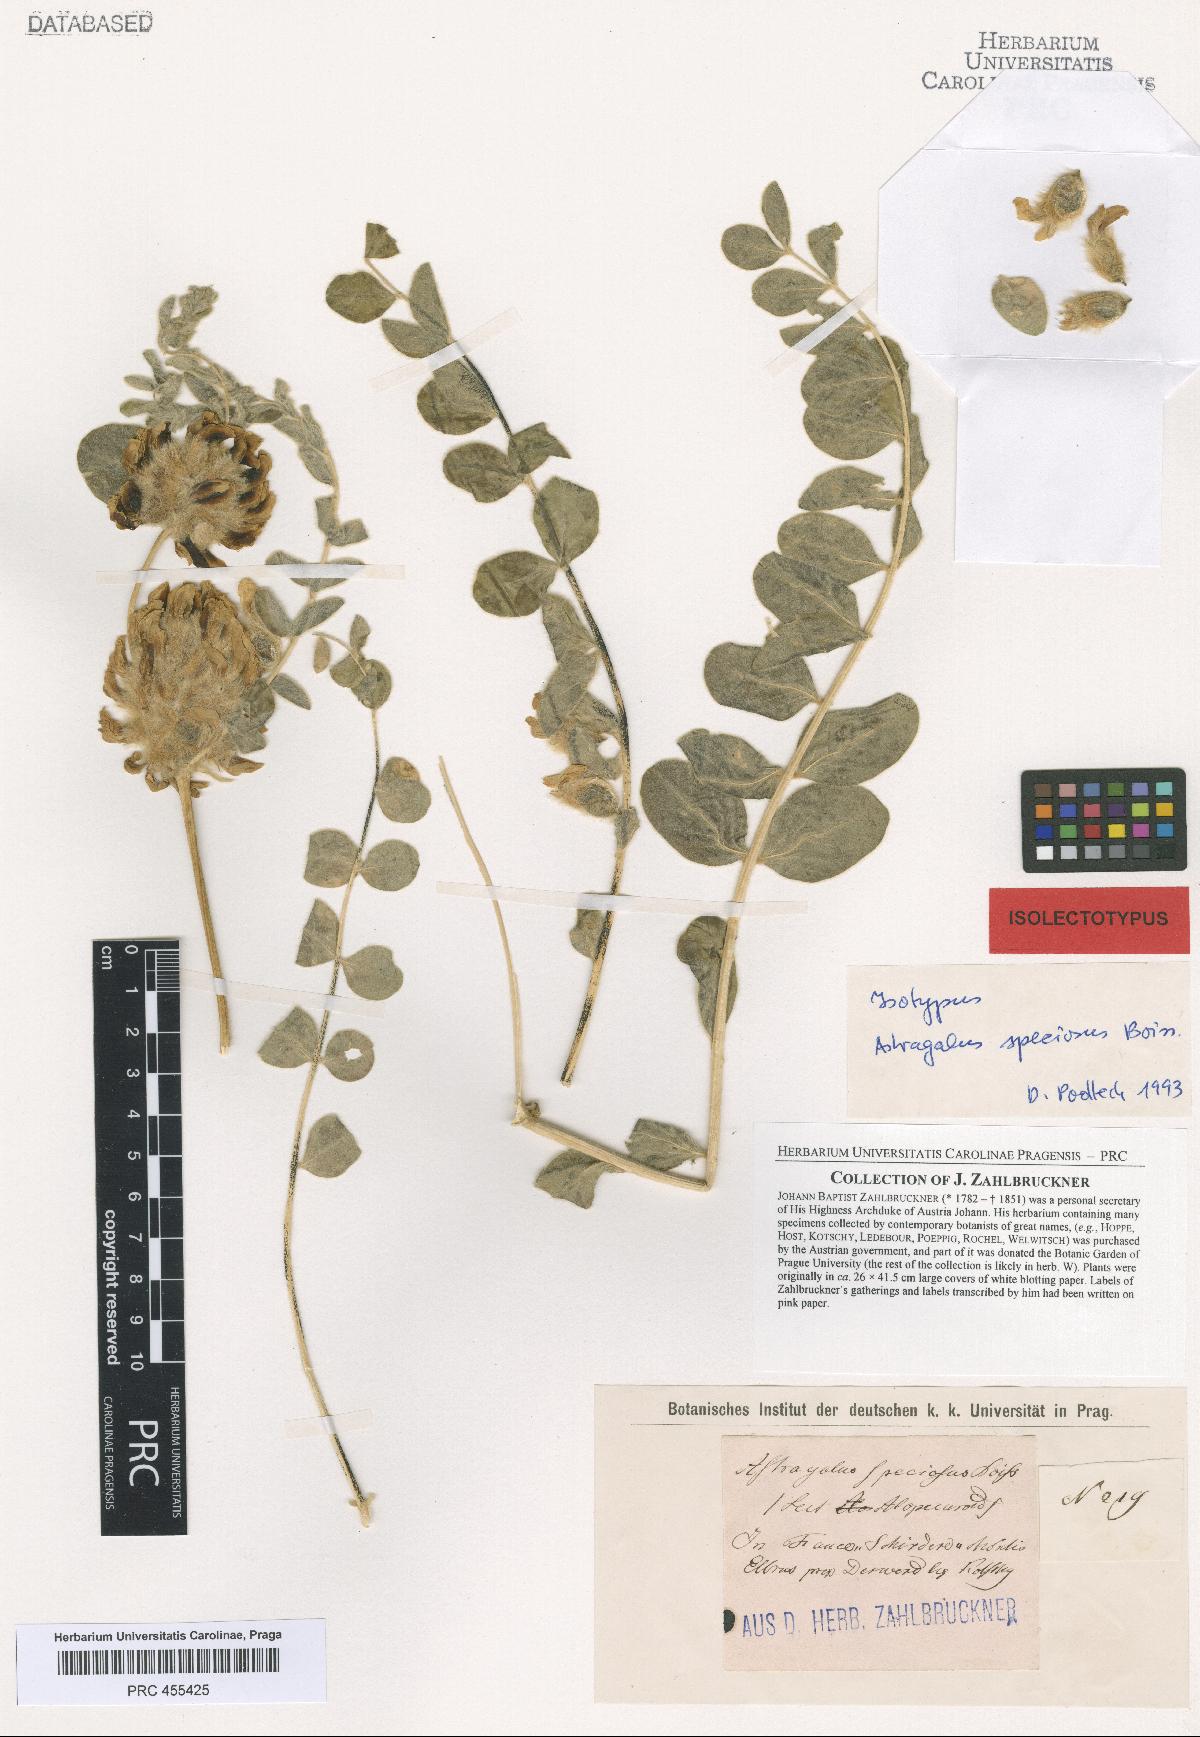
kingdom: Plantae
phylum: Tracheophyta
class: Magnoliopsida
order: Fabales
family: Fabaceae
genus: Astragalus
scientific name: Astragalus speciosus
